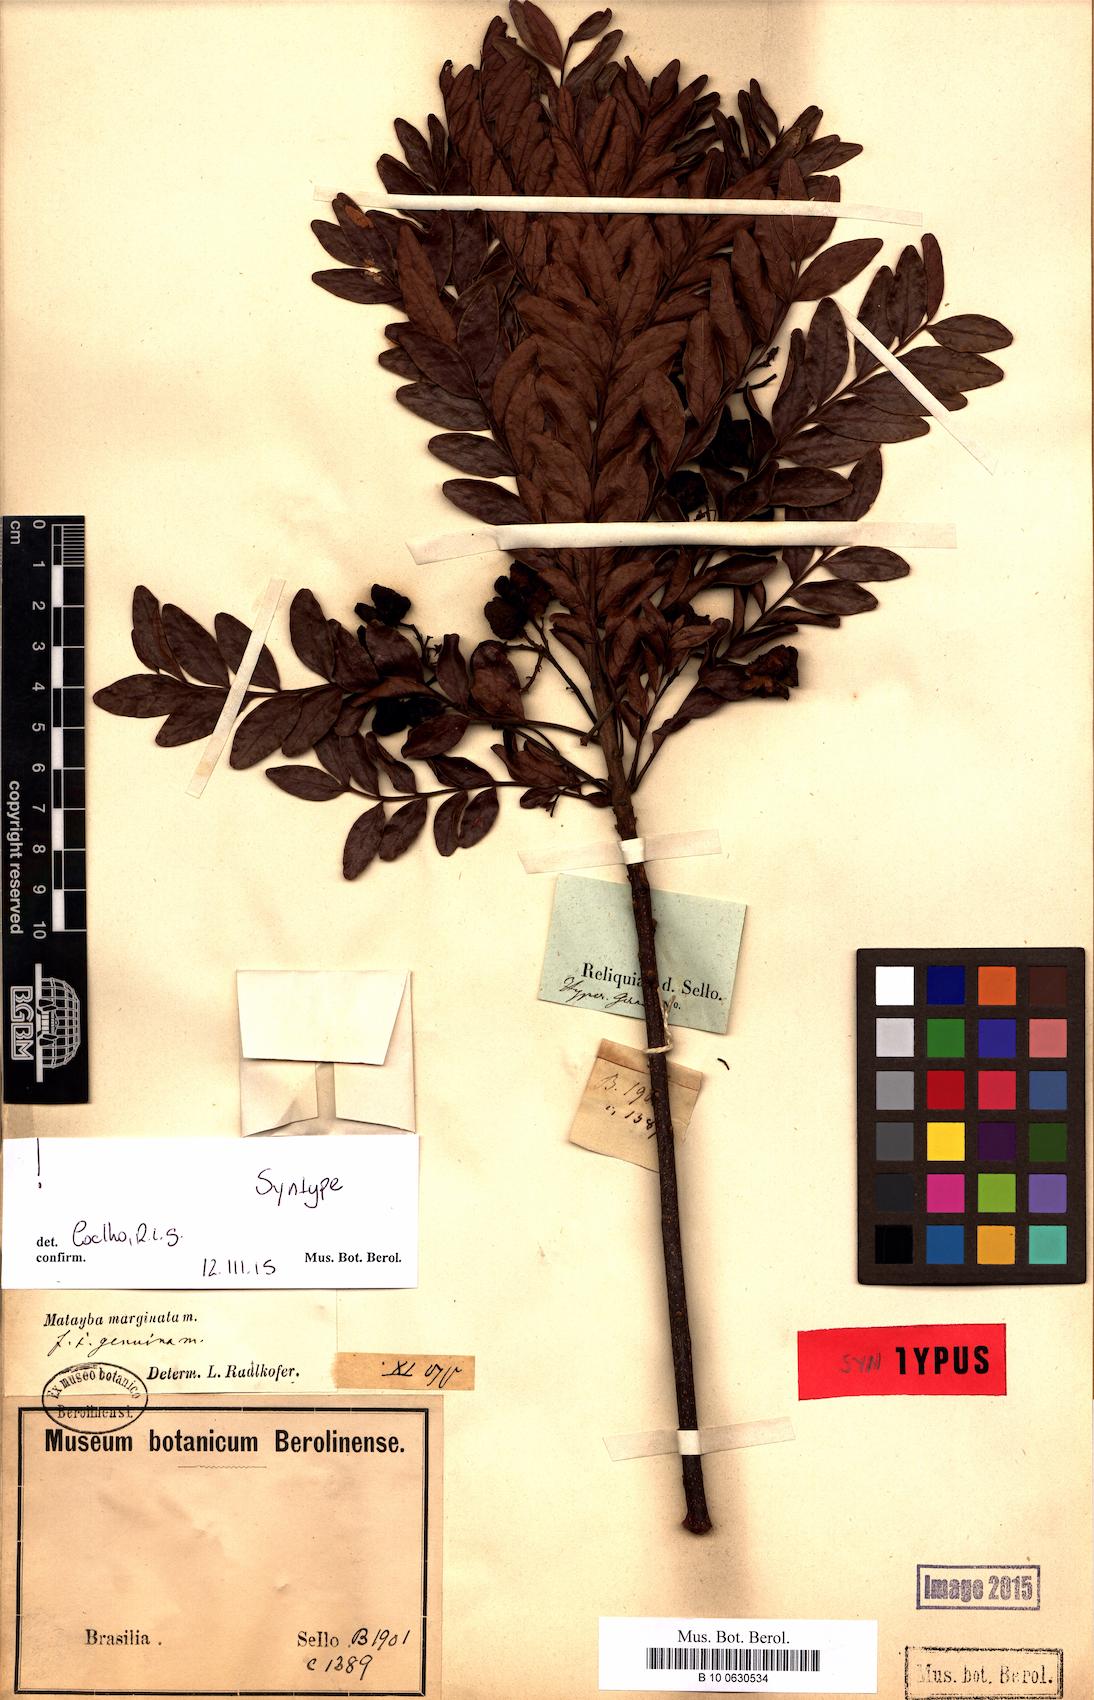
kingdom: Plantae
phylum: Tracheophyta
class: Magnoliopsida
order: Sapindales
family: Sapindaceae
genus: Matayba
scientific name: Matayba marginata
